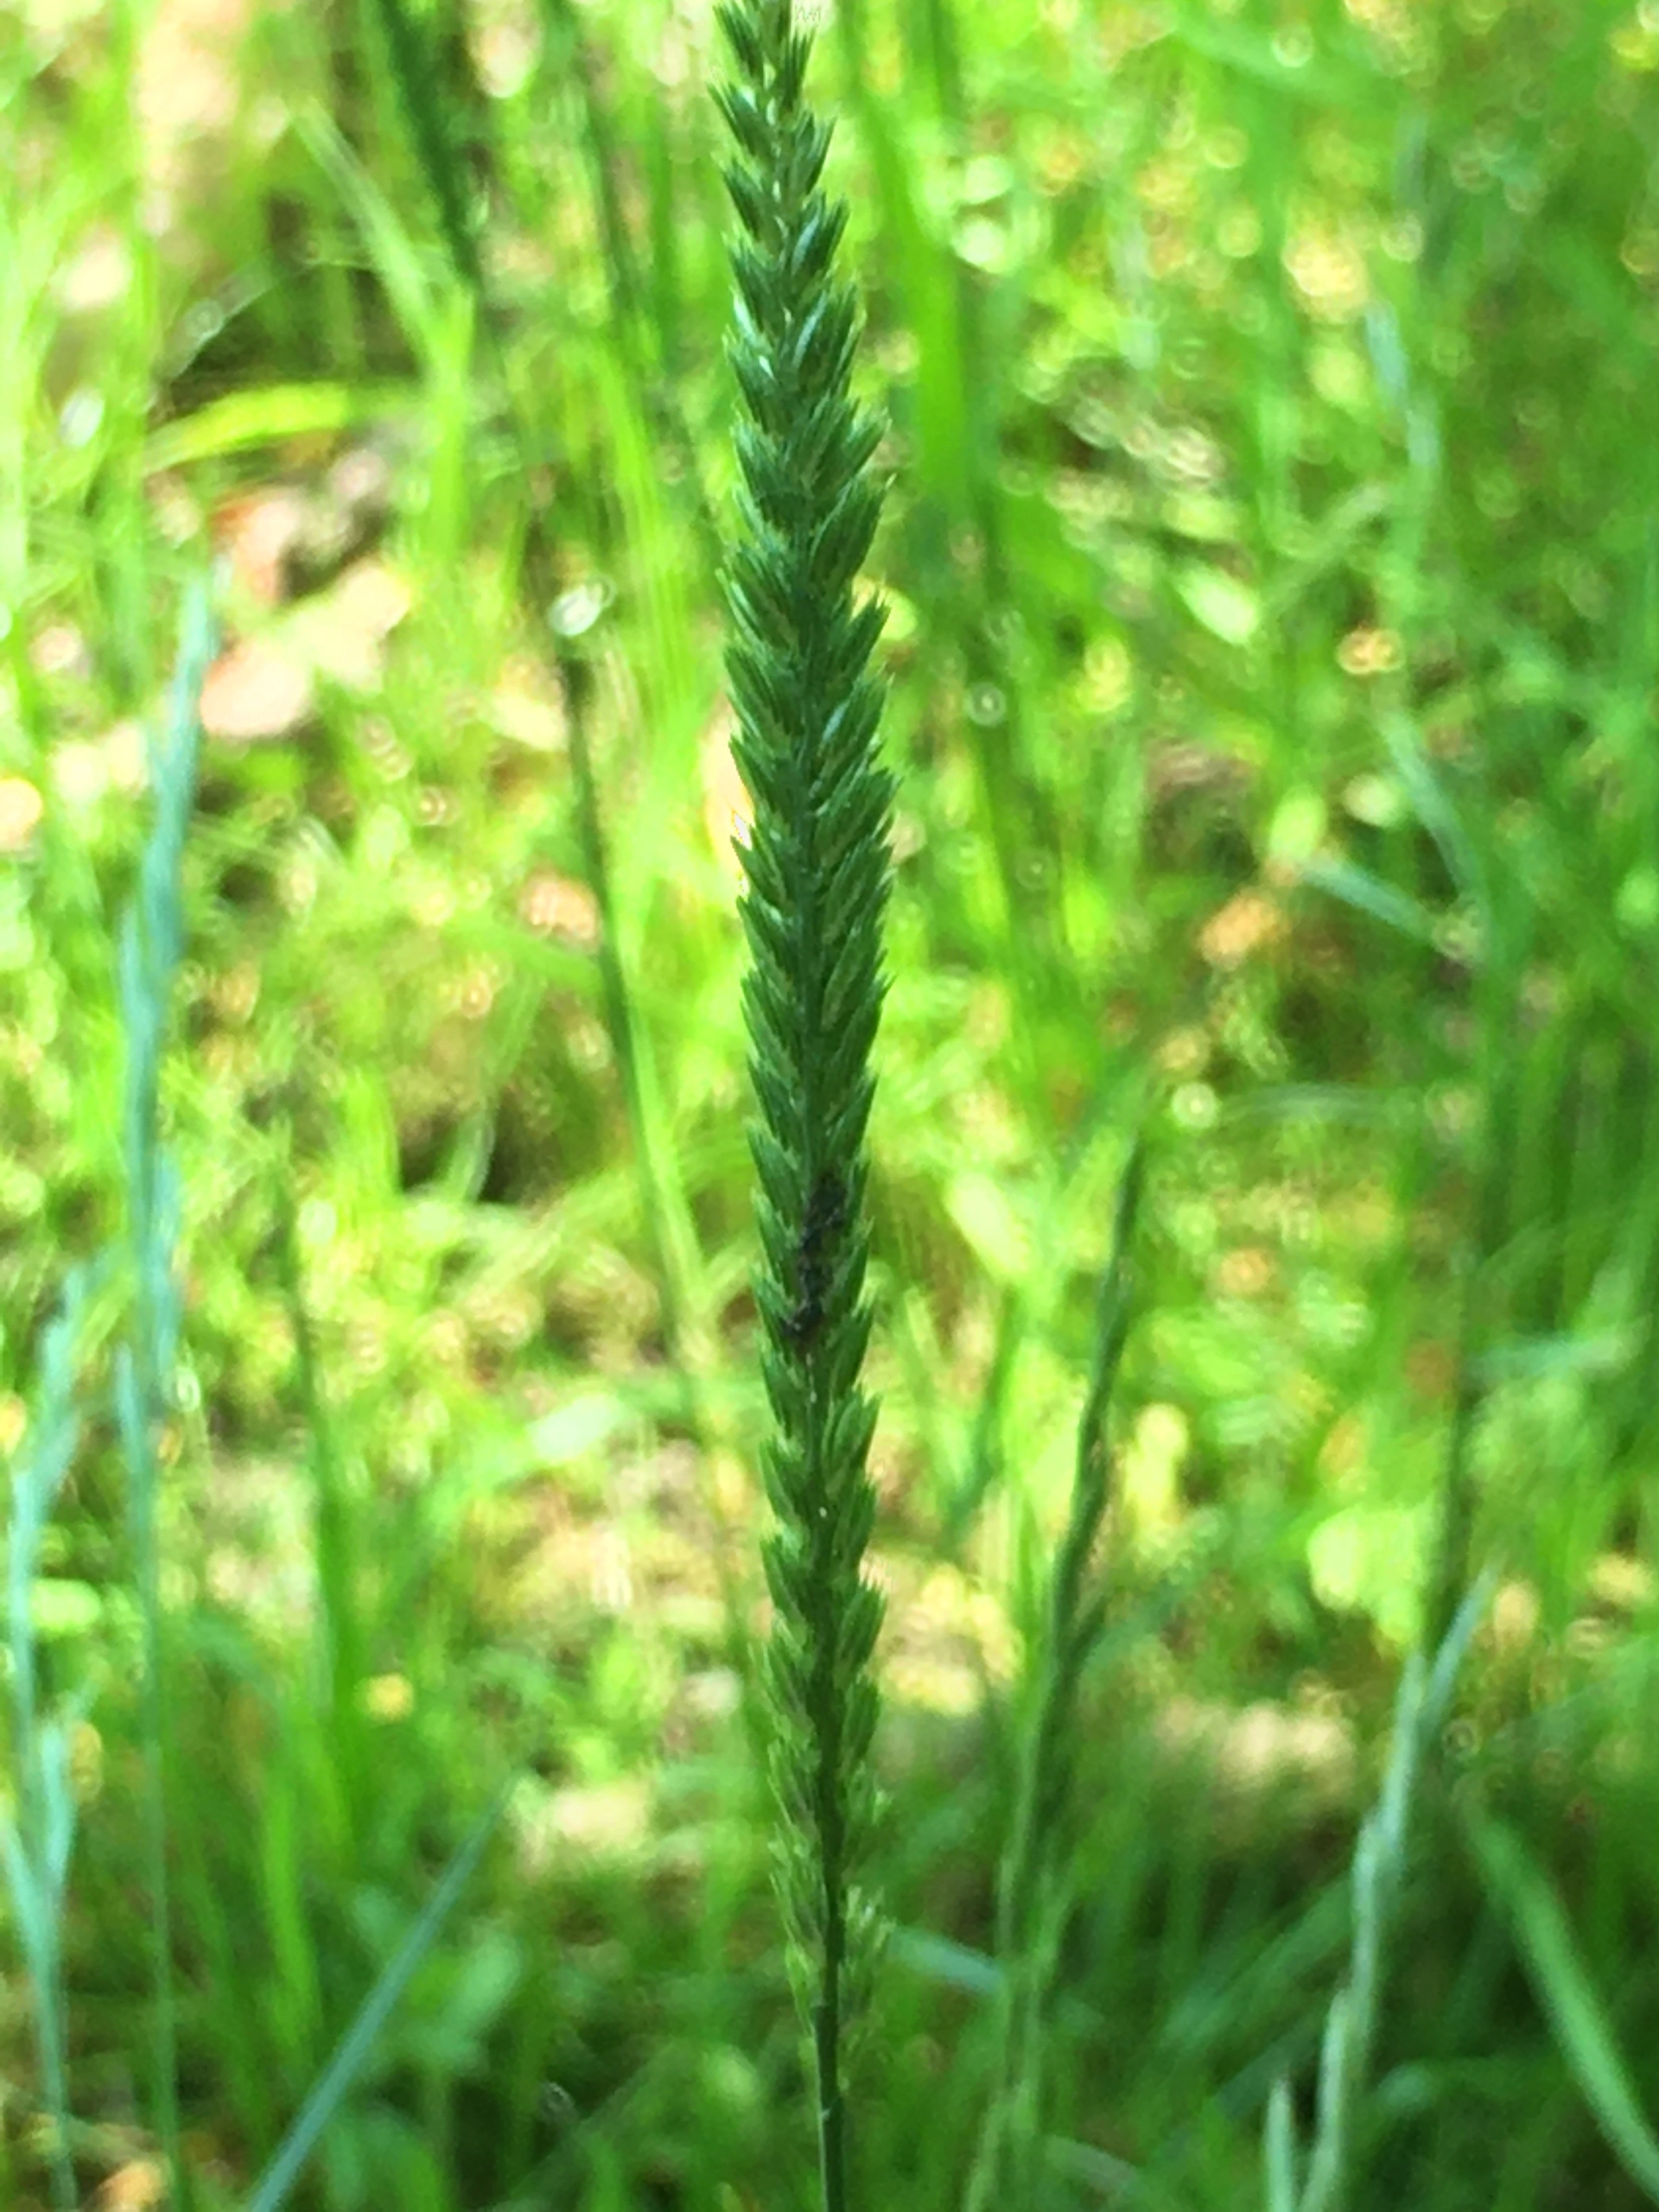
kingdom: Plantae
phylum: Tracheophyta
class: Liliopsida
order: Poales
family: Poaceae
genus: Cynosurus
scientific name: Cynosurus cristatus
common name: Kamgræs
